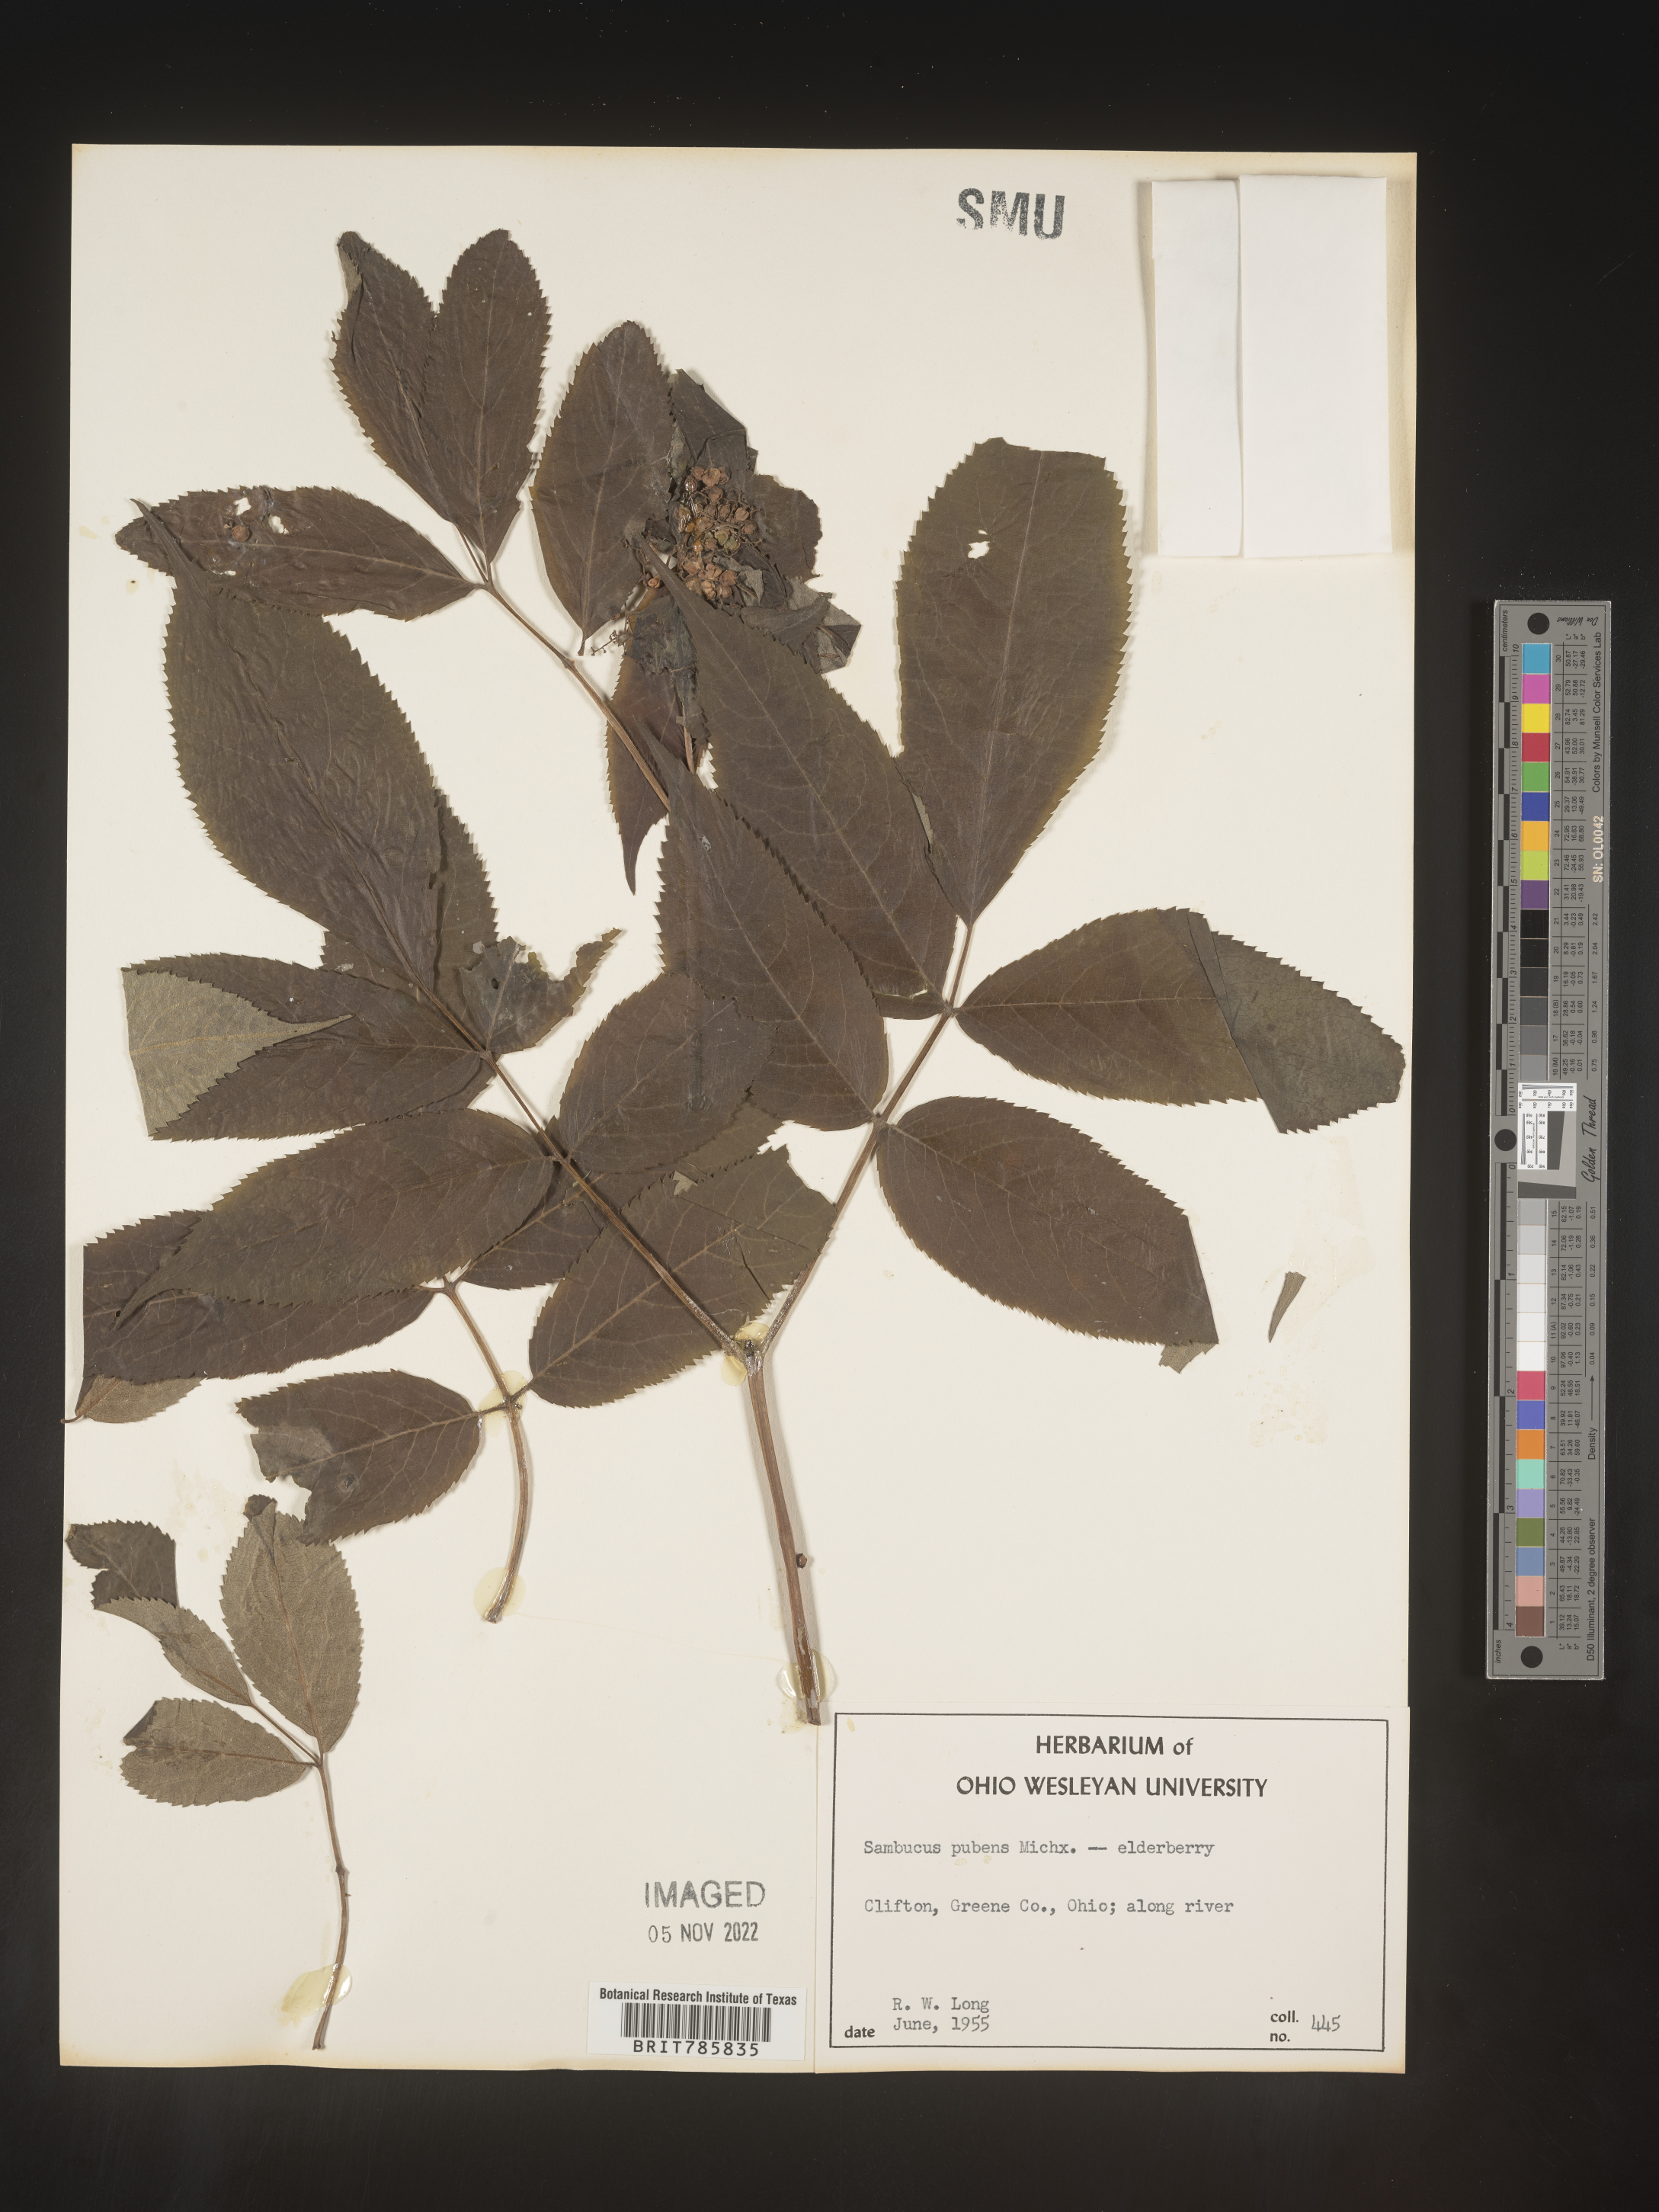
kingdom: Plantae
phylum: Tracheophyta
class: Magnoliopsida
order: Dipsacales
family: Viburnaceae
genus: Sambucus
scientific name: Sambucus
